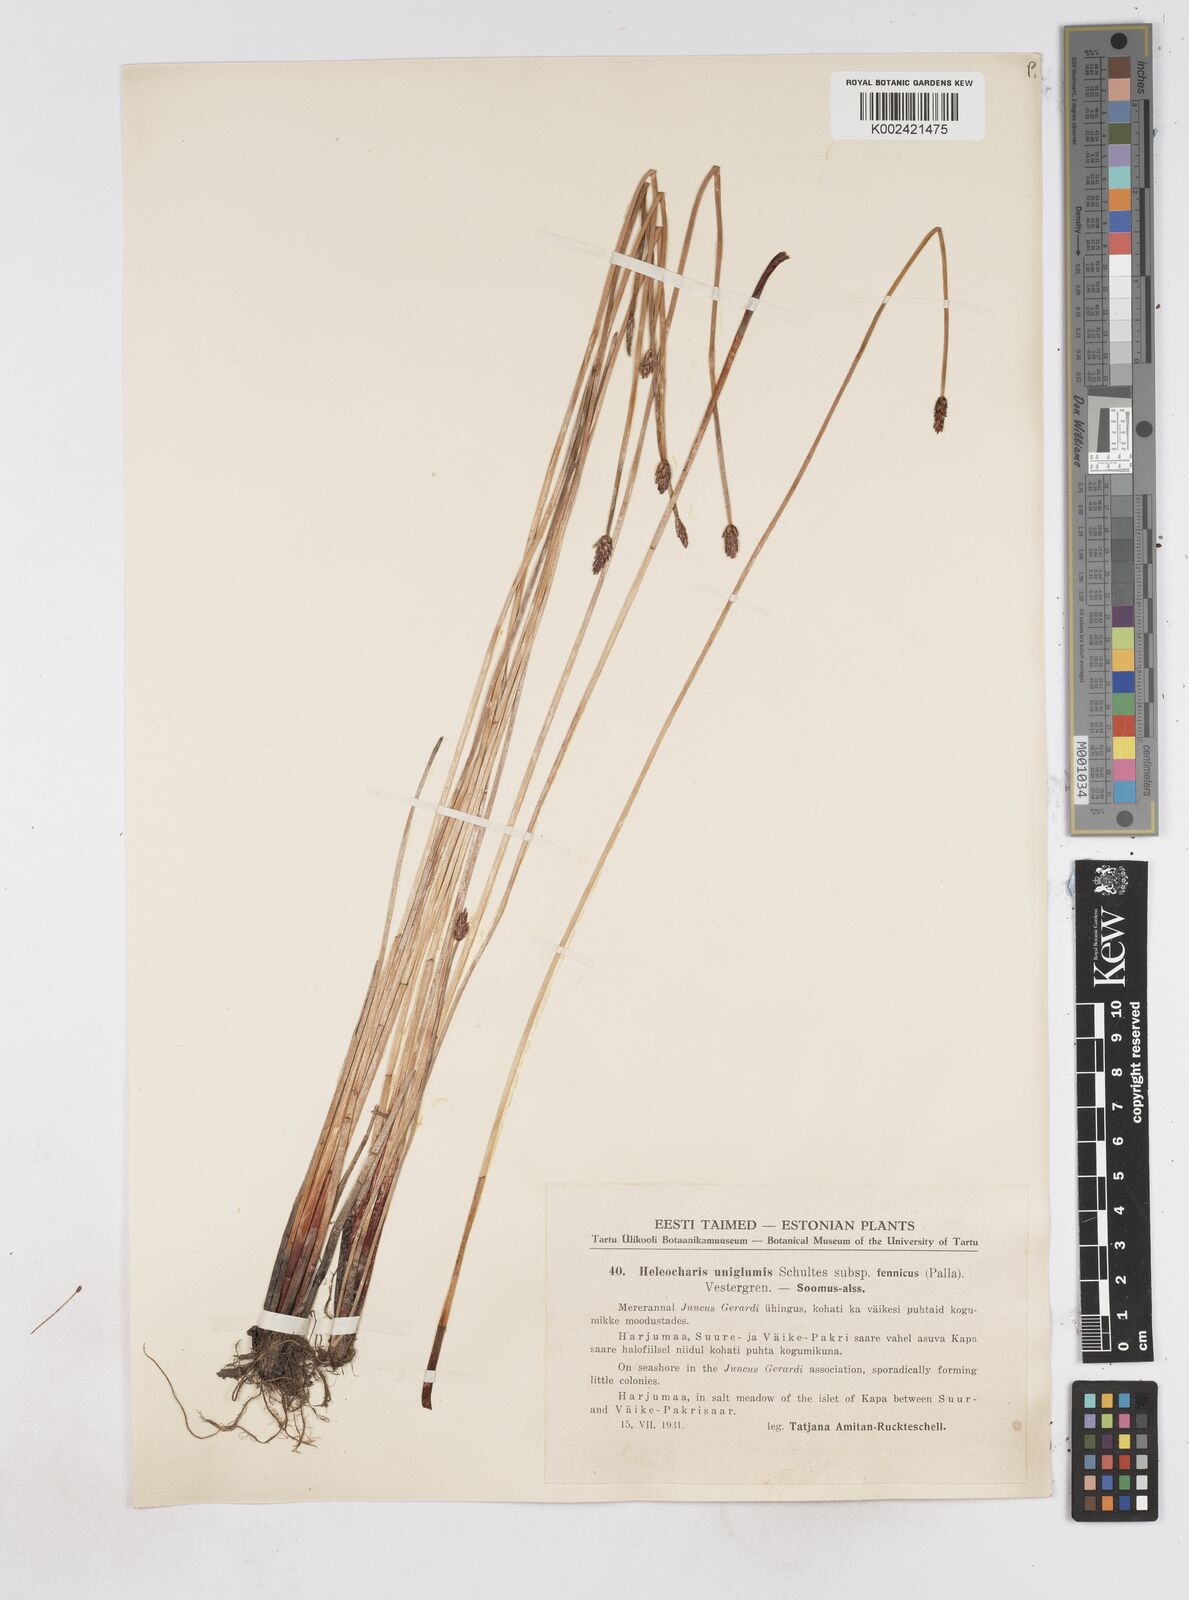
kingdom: Plantae
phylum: Tracheophyta
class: Liliopsida
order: Poales
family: Cyperaceae
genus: Eleocharis
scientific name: Eleocharis uniglumis
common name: Slender spike-rush
